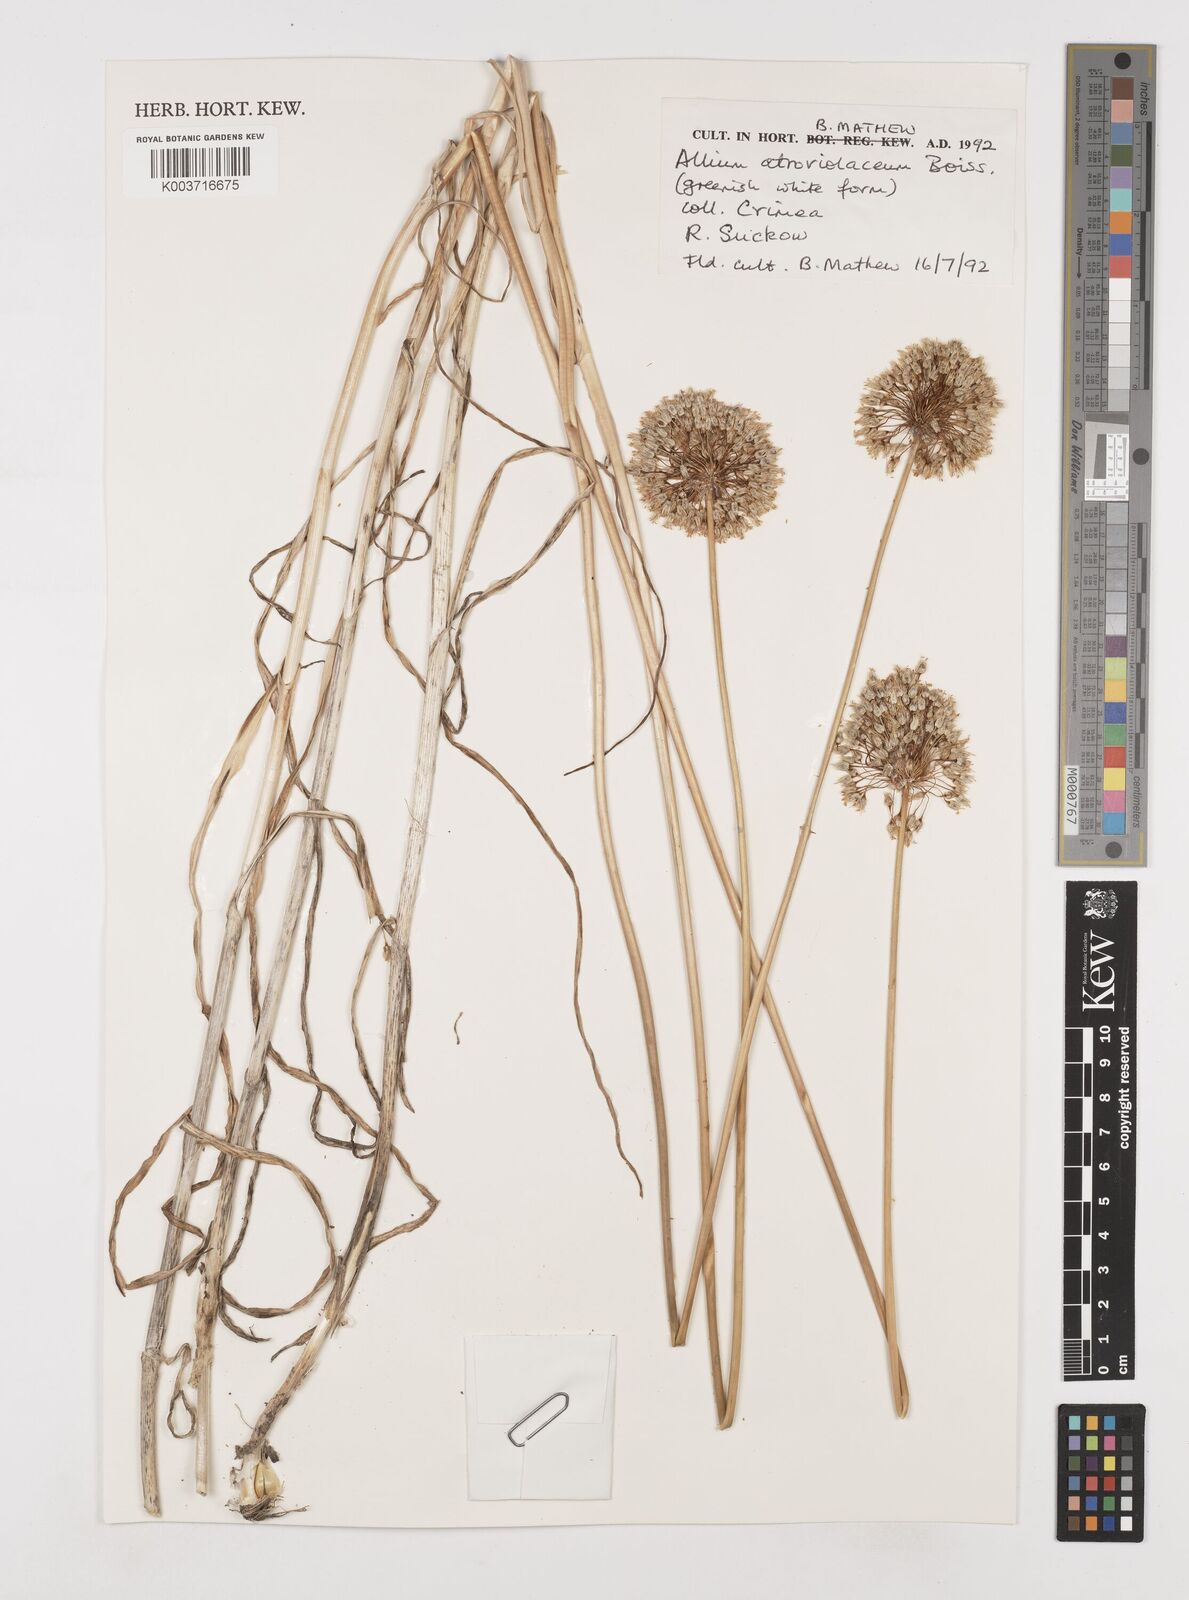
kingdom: Plantae
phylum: Tracheophyta
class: Liliopsida
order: Asparagales
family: Amaryllidaceae
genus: Allium
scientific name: Allium sphaerocephalon
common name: Round-headed leek
